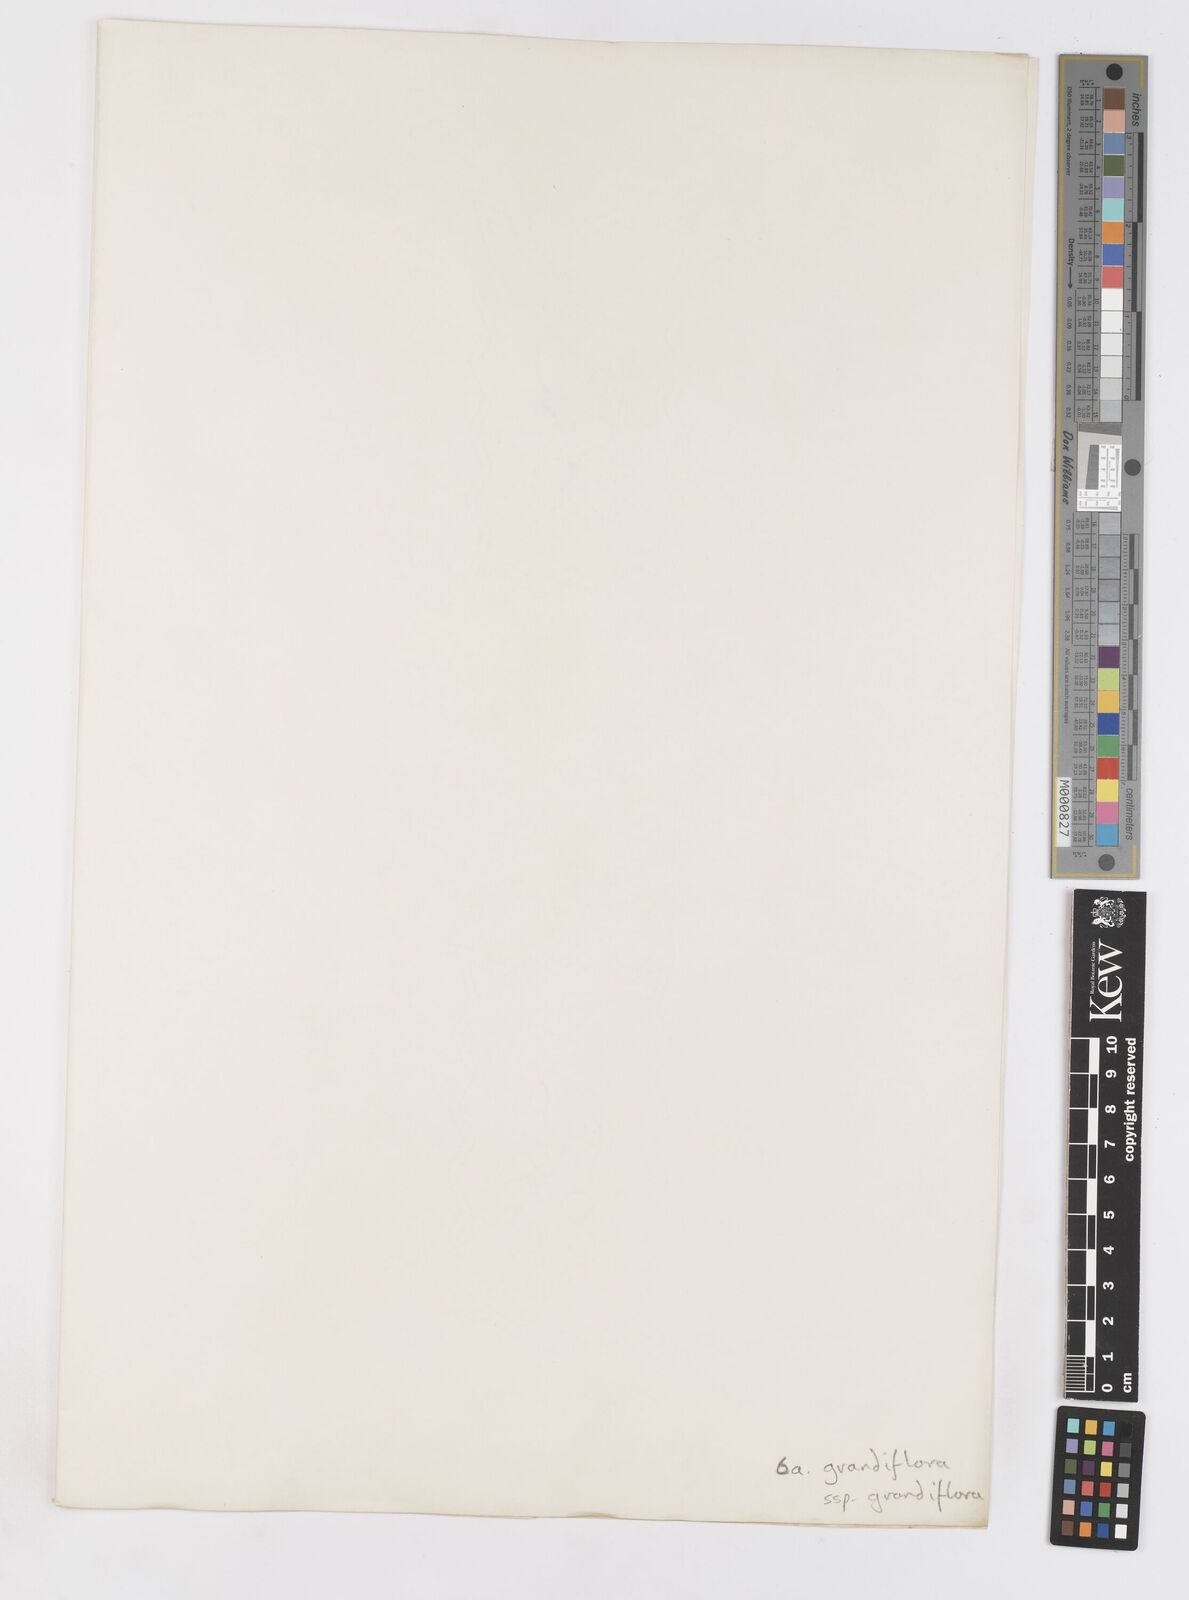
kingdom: Plantae
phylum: Tracheophyta
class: Liliopsida
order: Asparagales
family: Iridaceae
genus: Sparaxis
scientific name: Sparaxis grandiflora
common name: Plain harlequin-flower
